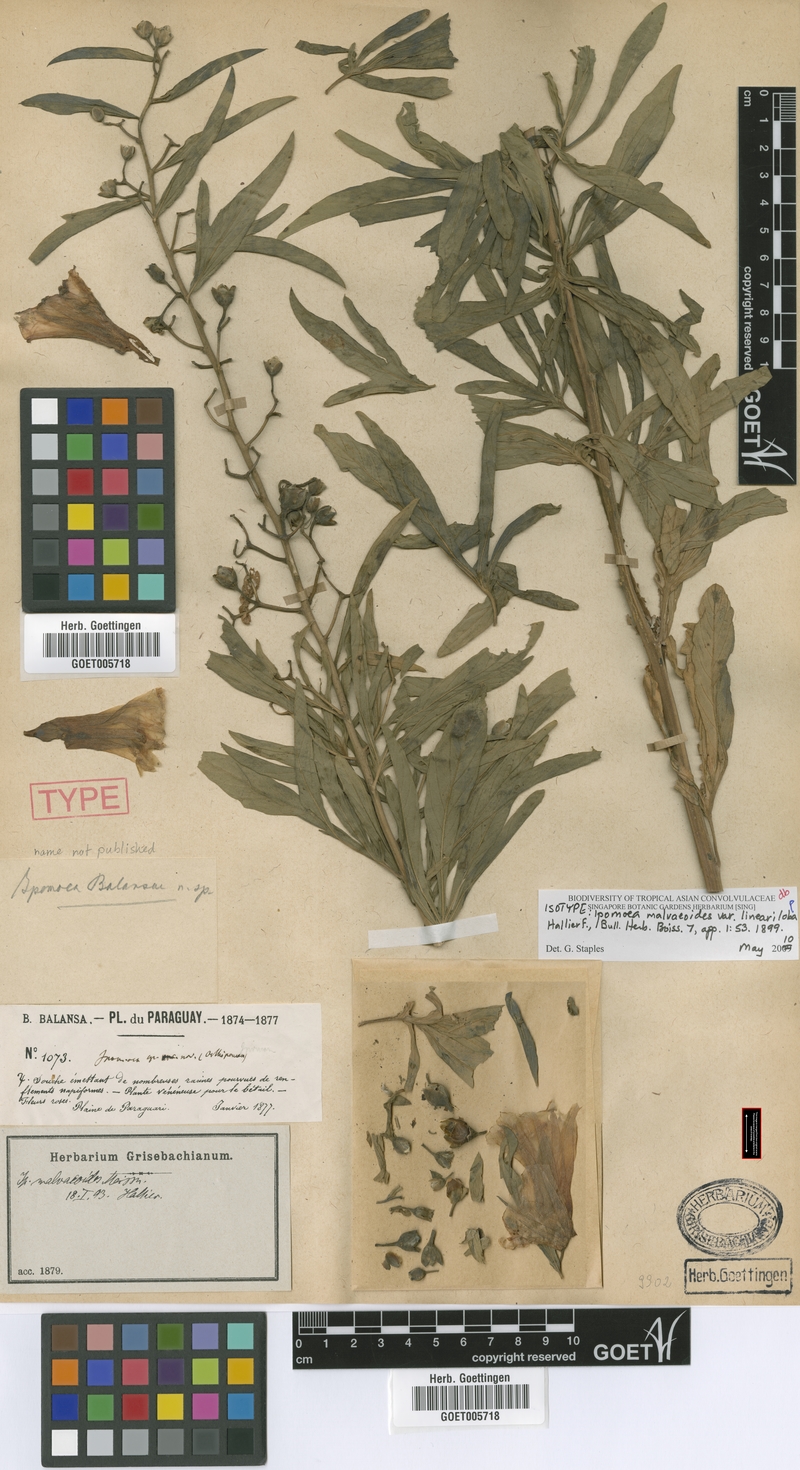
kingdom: Plantae
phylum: Tracheophyta
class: Magnoliopsida
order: Solanales
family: Convolvulaceae
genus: Ipomoea
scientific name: Ipomoea malvaeoides
